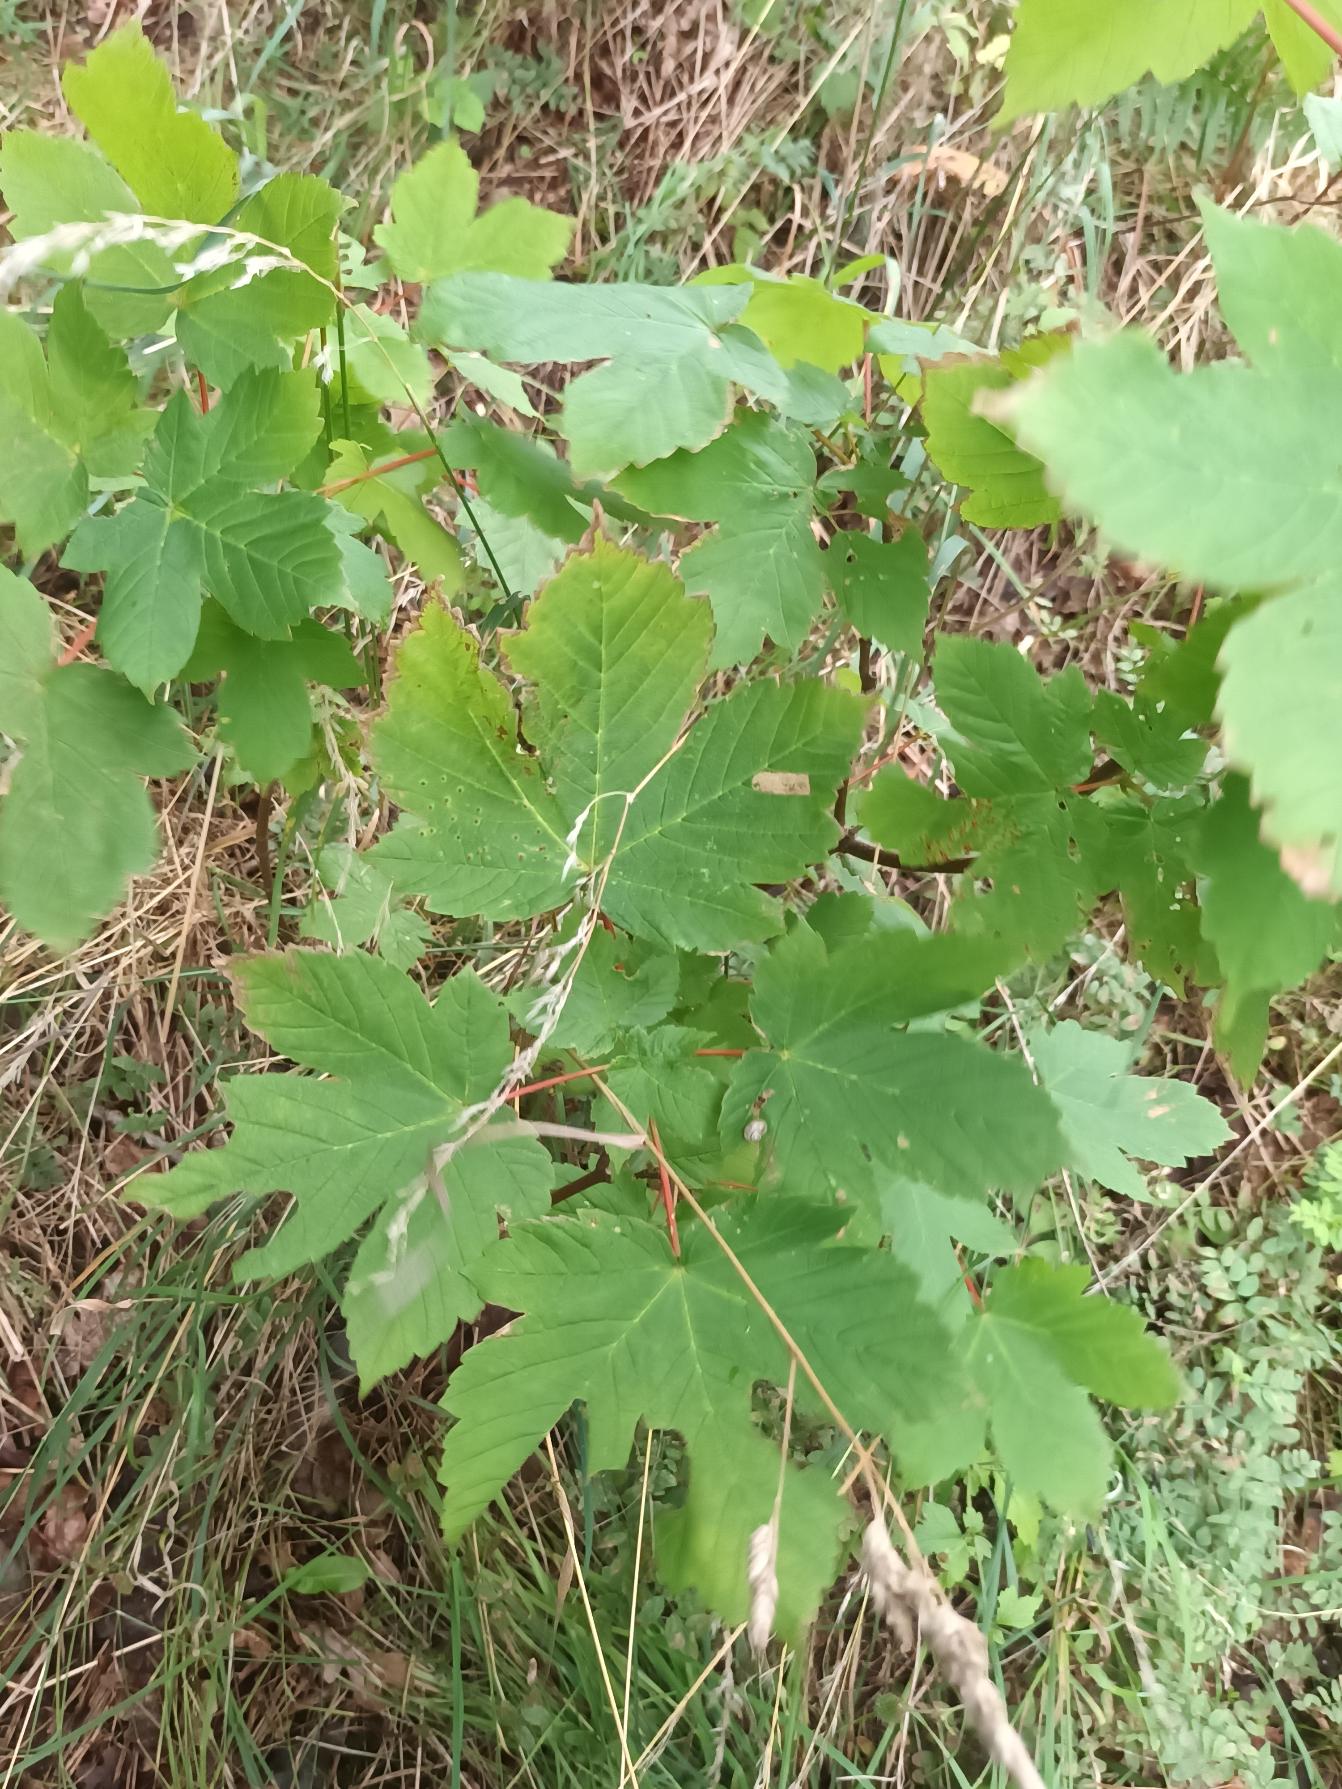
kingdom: Plantae
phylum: Tracheophyta
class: Magnoliopsida
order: Sapindales
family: Sapindaceae
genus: Acer
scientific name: Acer pseudoplatanus
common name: Ahorn
